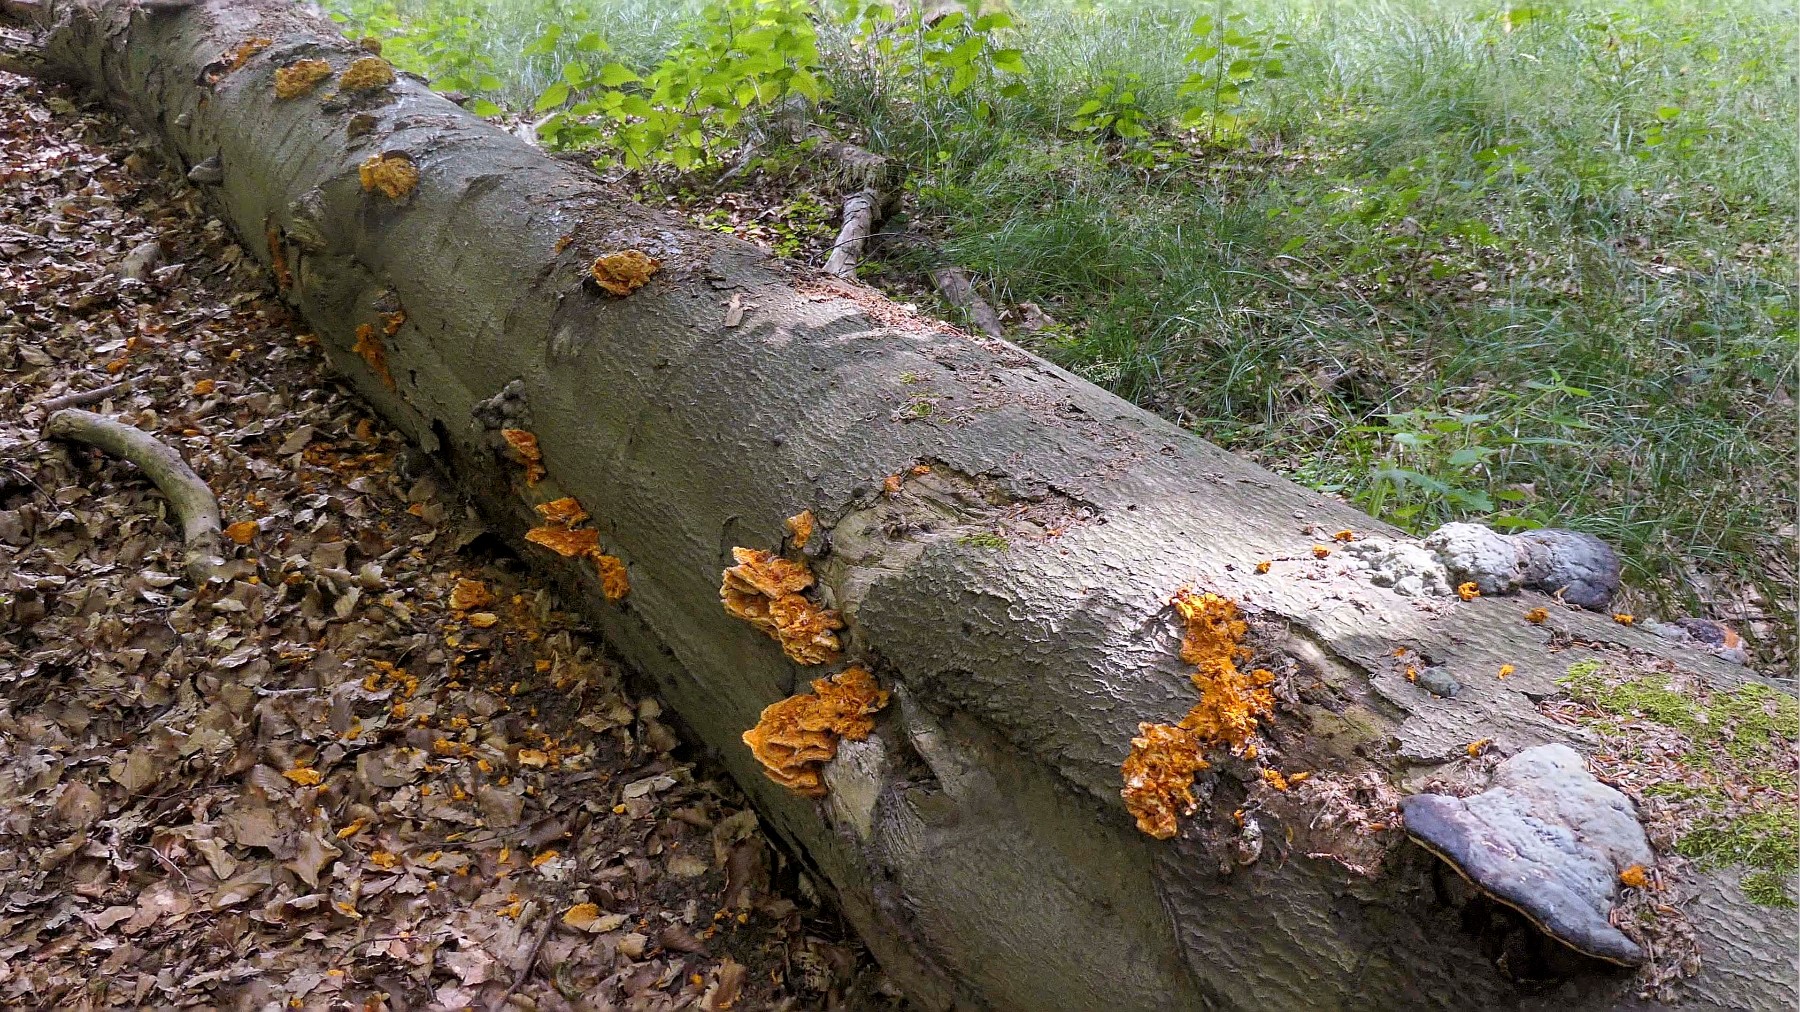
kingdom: Fungi
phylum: Basidiomycota
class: Agaricomycetes
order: Polyporales
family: Pycnoporellaceae
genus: Pycnoporellus
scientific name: Pycnoporellus fulgens
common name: flammeporesvamp
